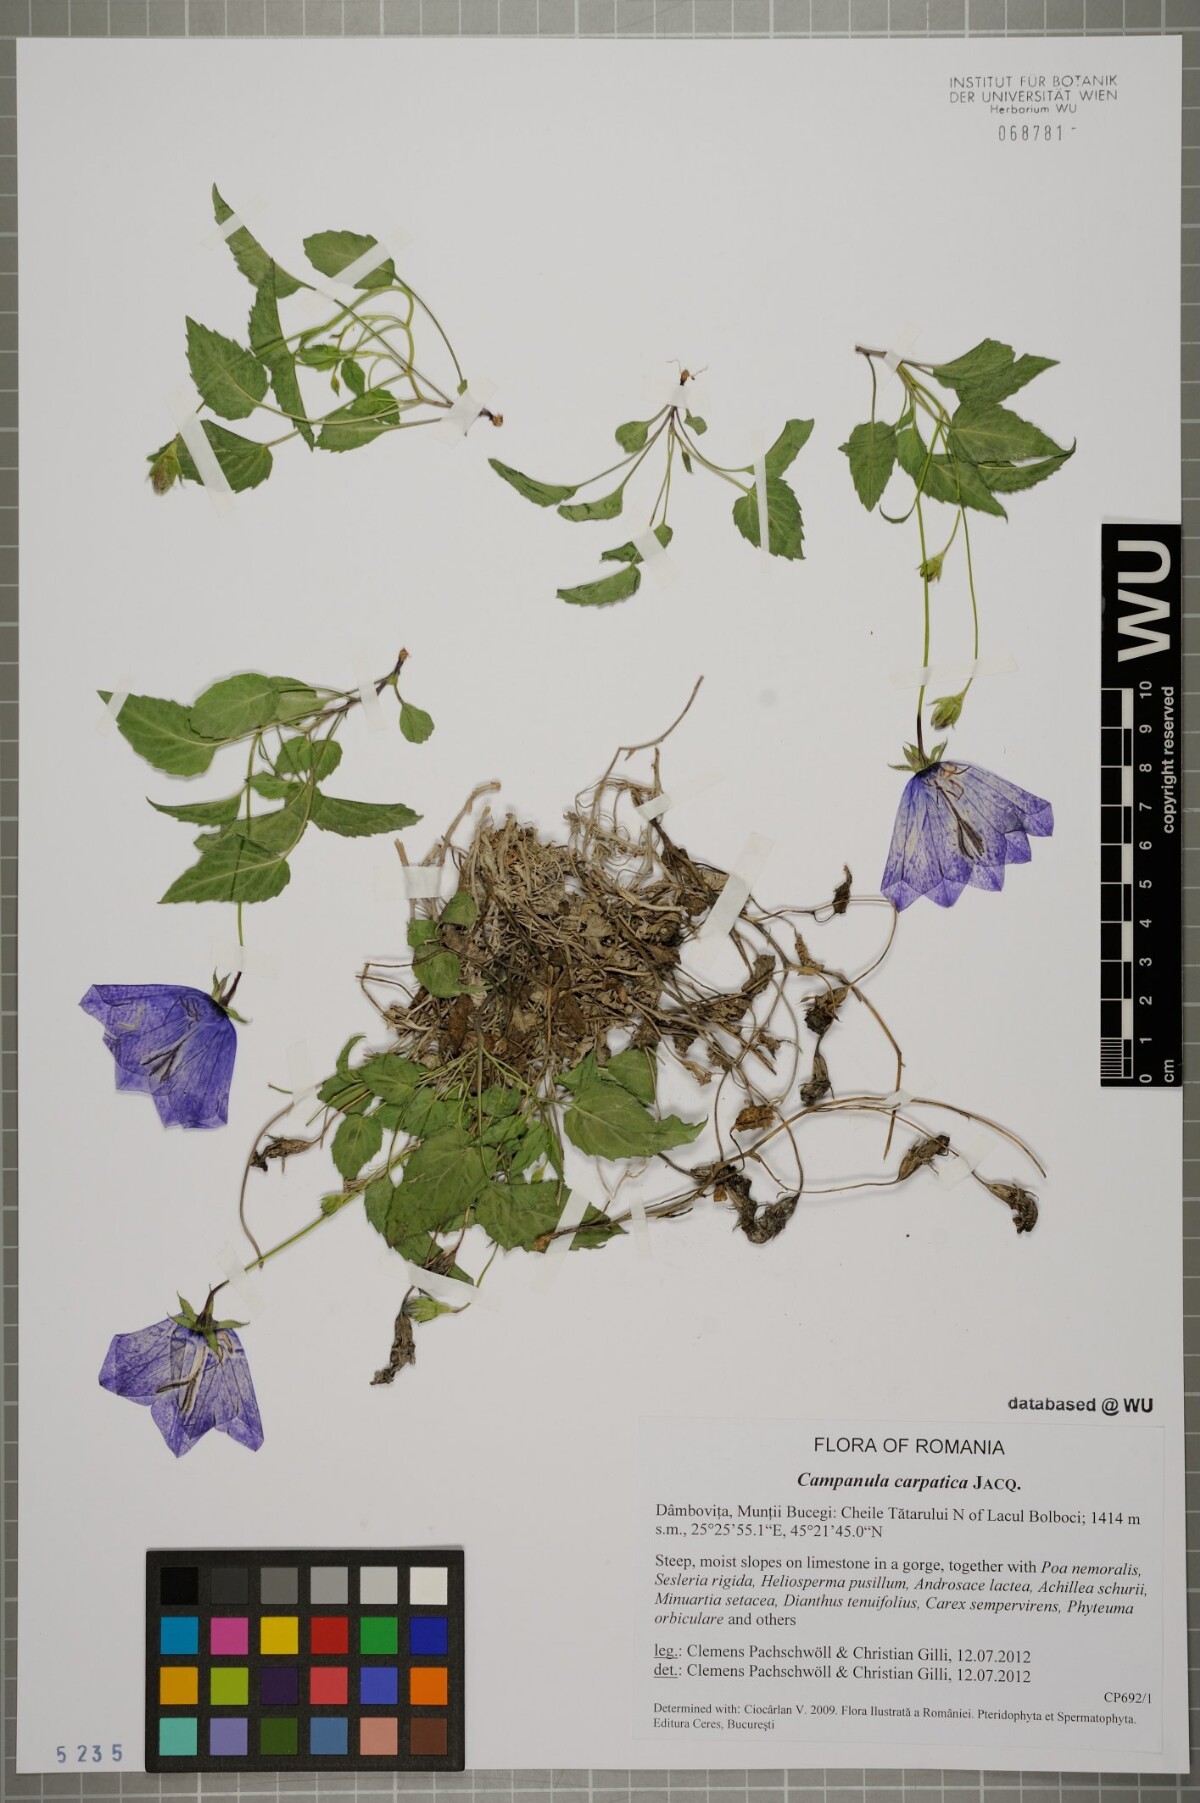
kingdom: Plantae
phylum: Tracheophyta
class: Magnoliopsida
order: Asterales
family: Campanulaceae
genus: Campanula
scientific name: Campanula carpatica
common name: Tussock bellflower
